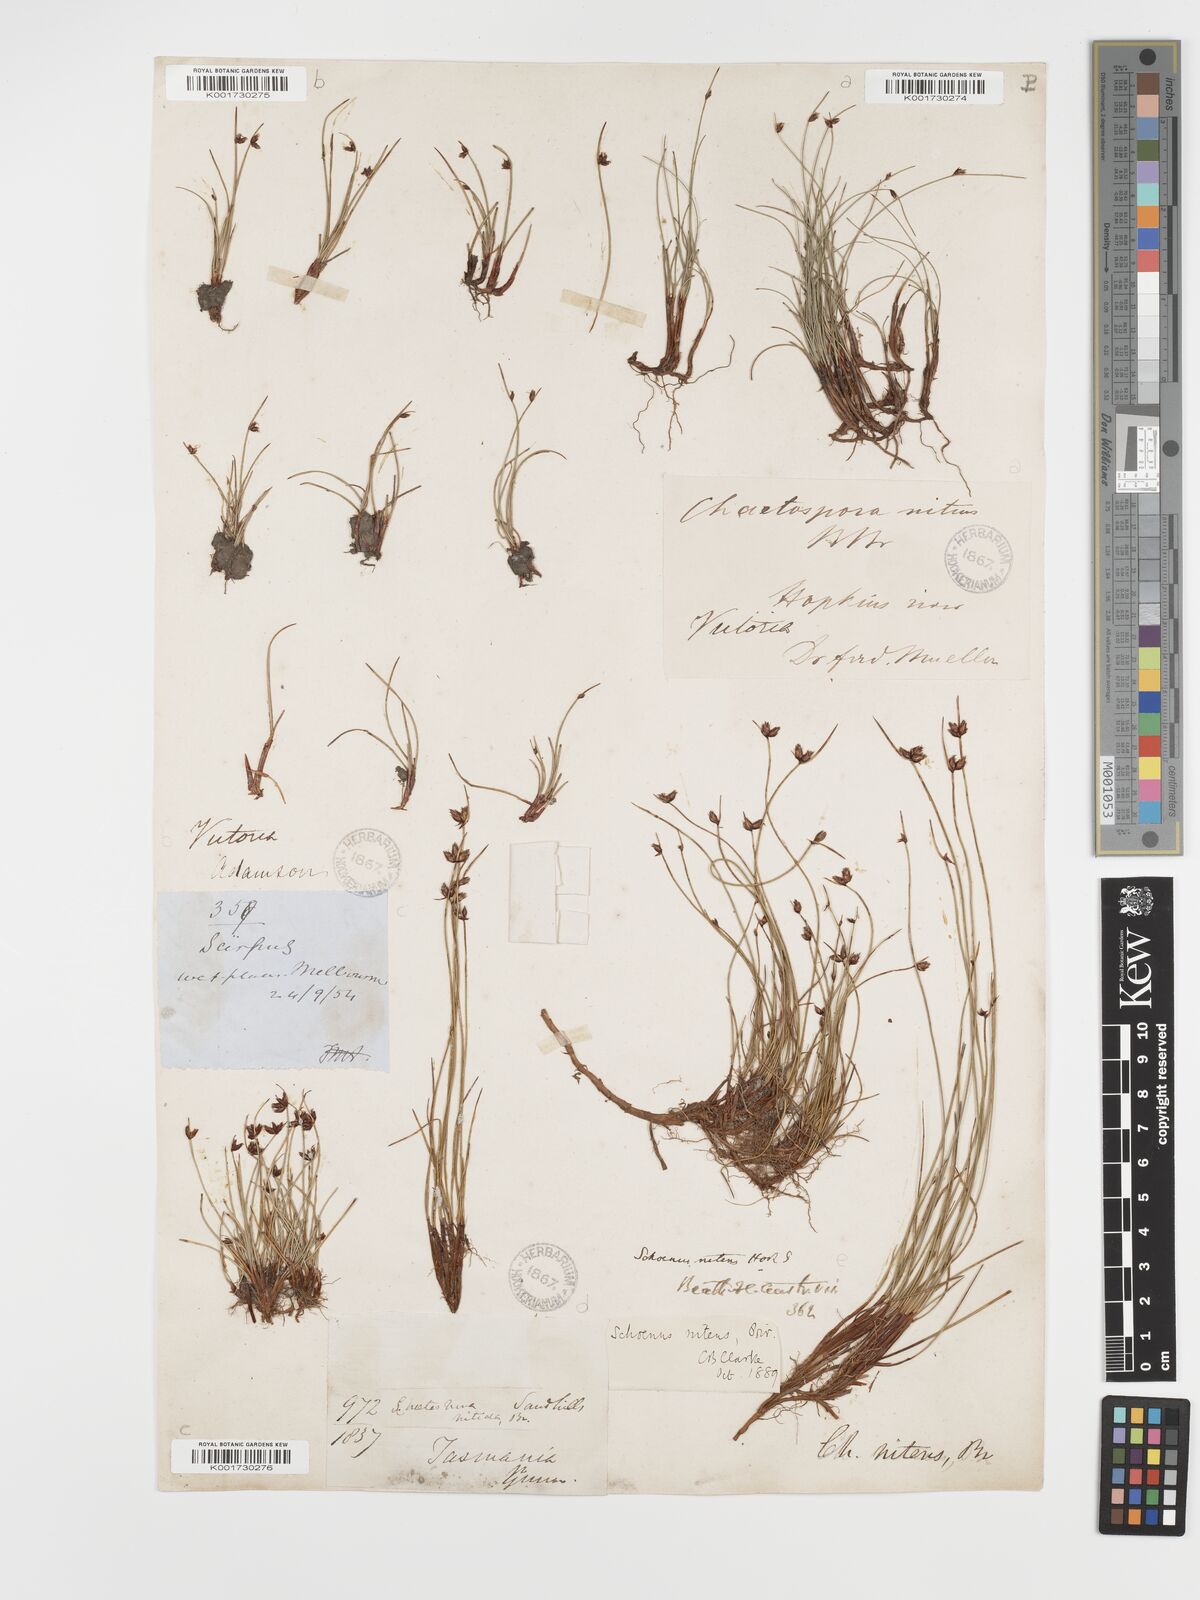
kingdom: Plantae
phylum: Tracheophyta
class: Liliopsida
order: Poales
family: Cyperaceae
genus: Schoenus
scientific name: Schoenus nitens
